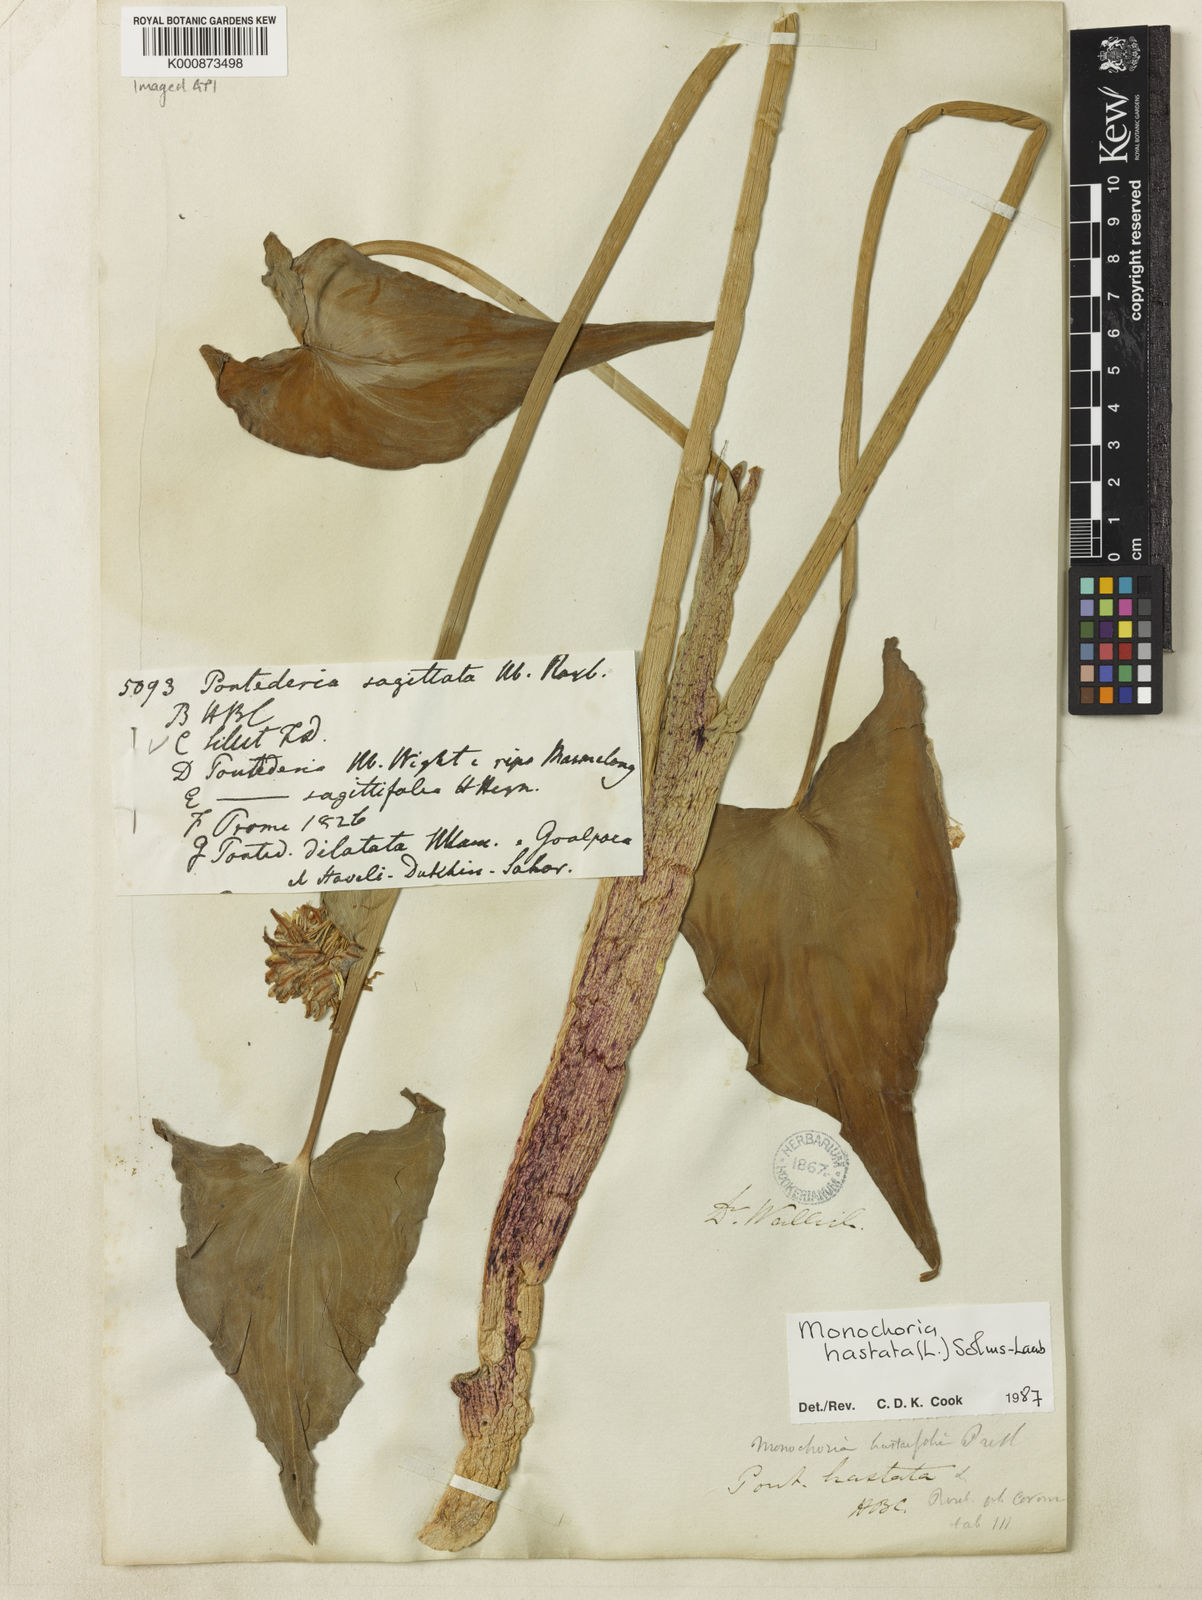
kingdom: Plantae
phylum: Tracheophyta
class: Liliopsida
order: Commelinales
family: Pontederiaceae
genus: Pontederia
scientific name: Pontederia hastata
